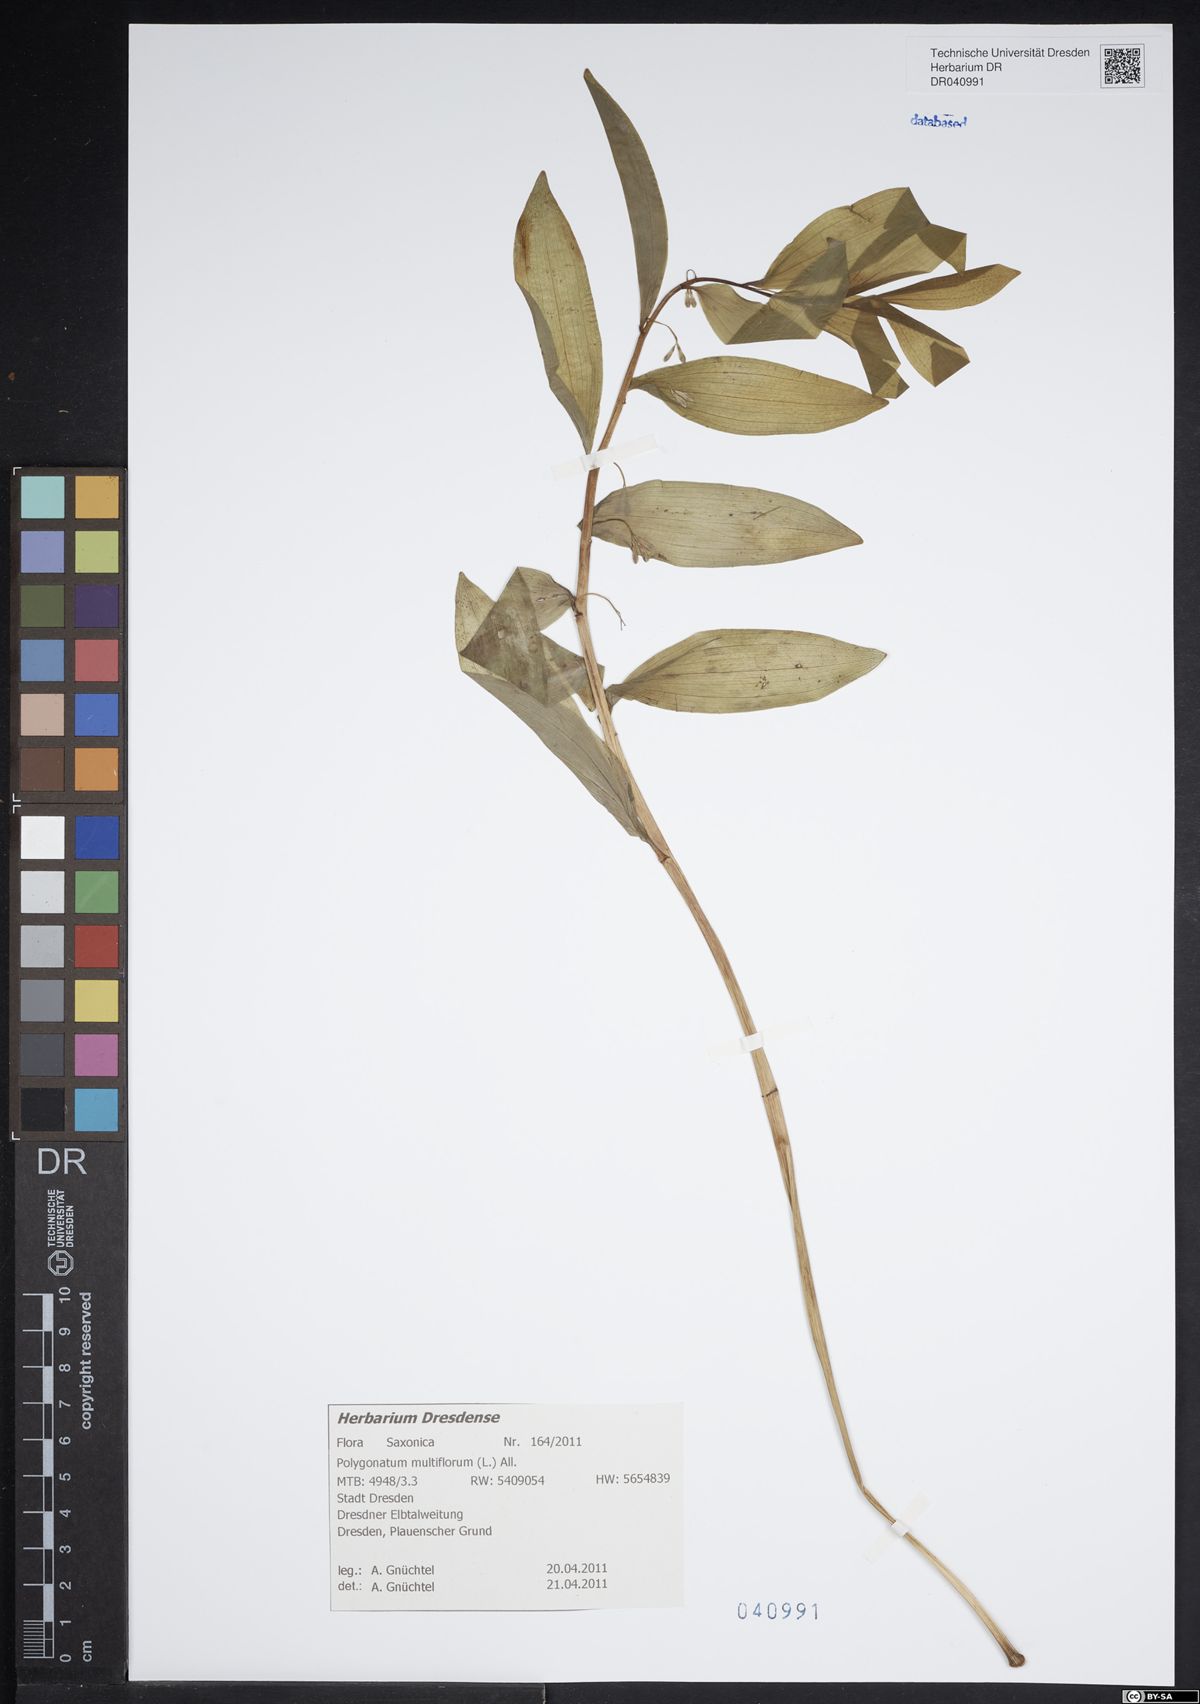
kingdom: Plantae
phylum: Tracheophyta
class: Liliopsida
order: Asparagales
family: Asparagaceae
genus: Polygonatum
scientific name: Polygonatum multiflorum
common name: Solomon's-seal
